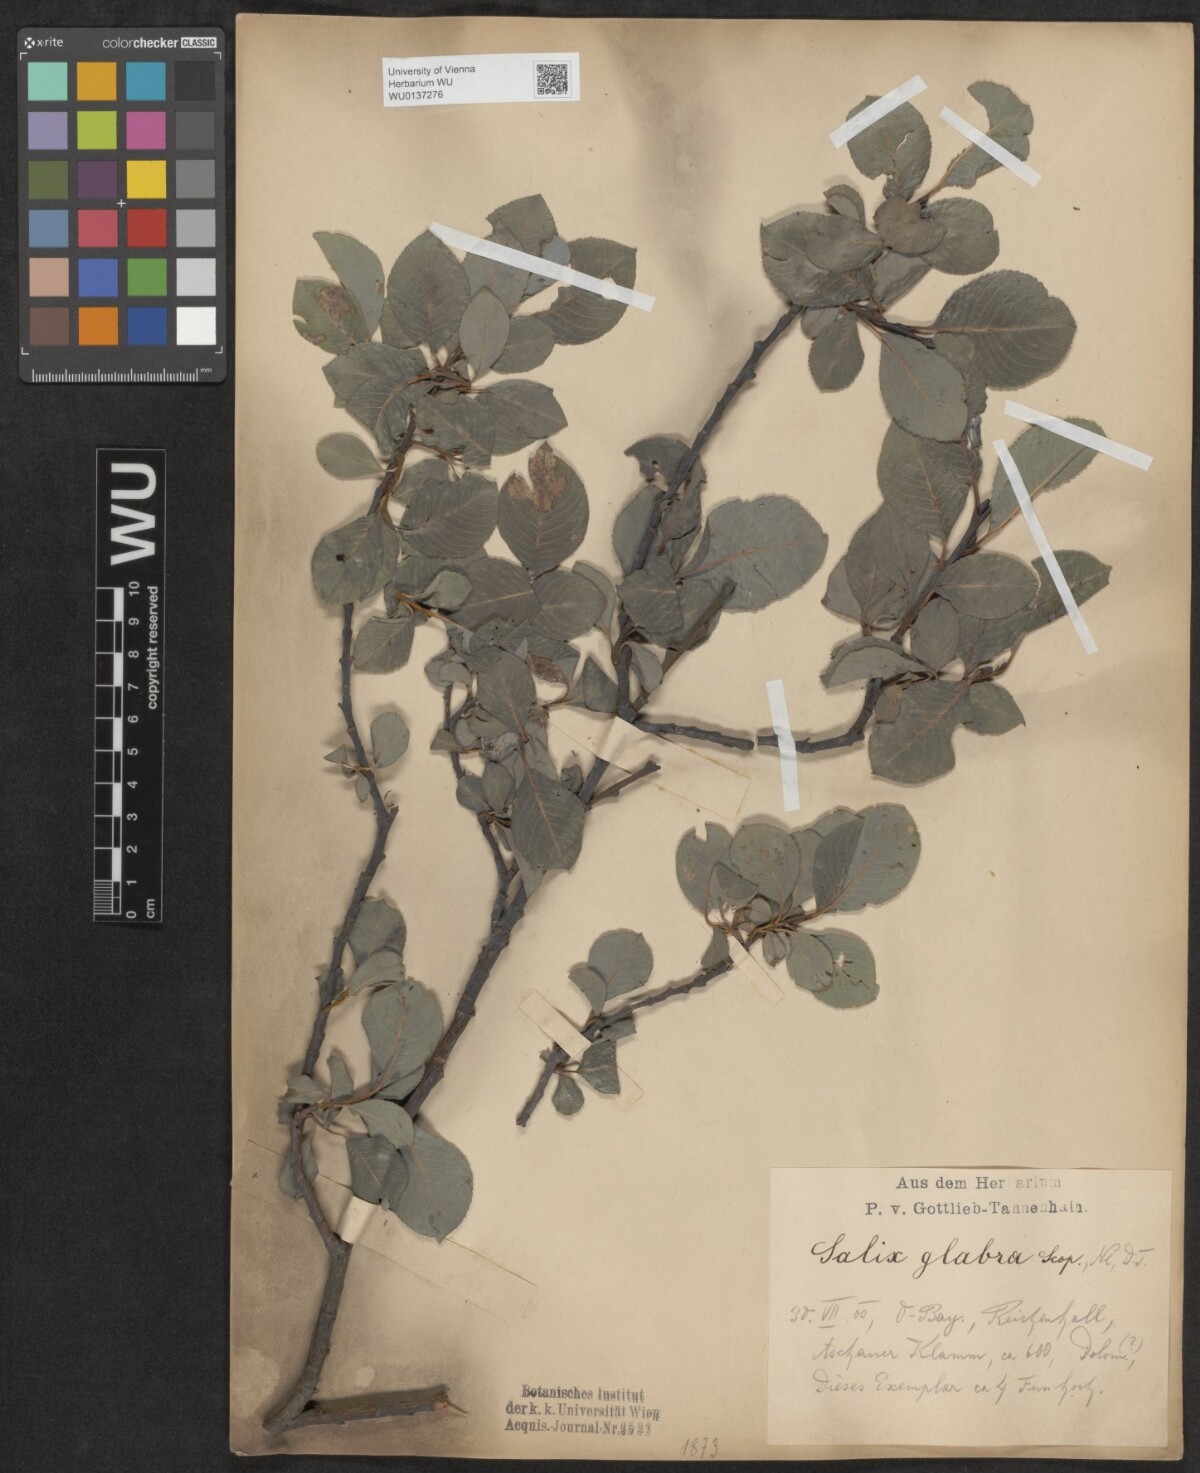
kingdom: Plantae
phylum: Tracheophyta
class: Magnoliopsida
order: Malpighiales
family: Salicaceae
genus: Salix
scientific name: Salix glabra
